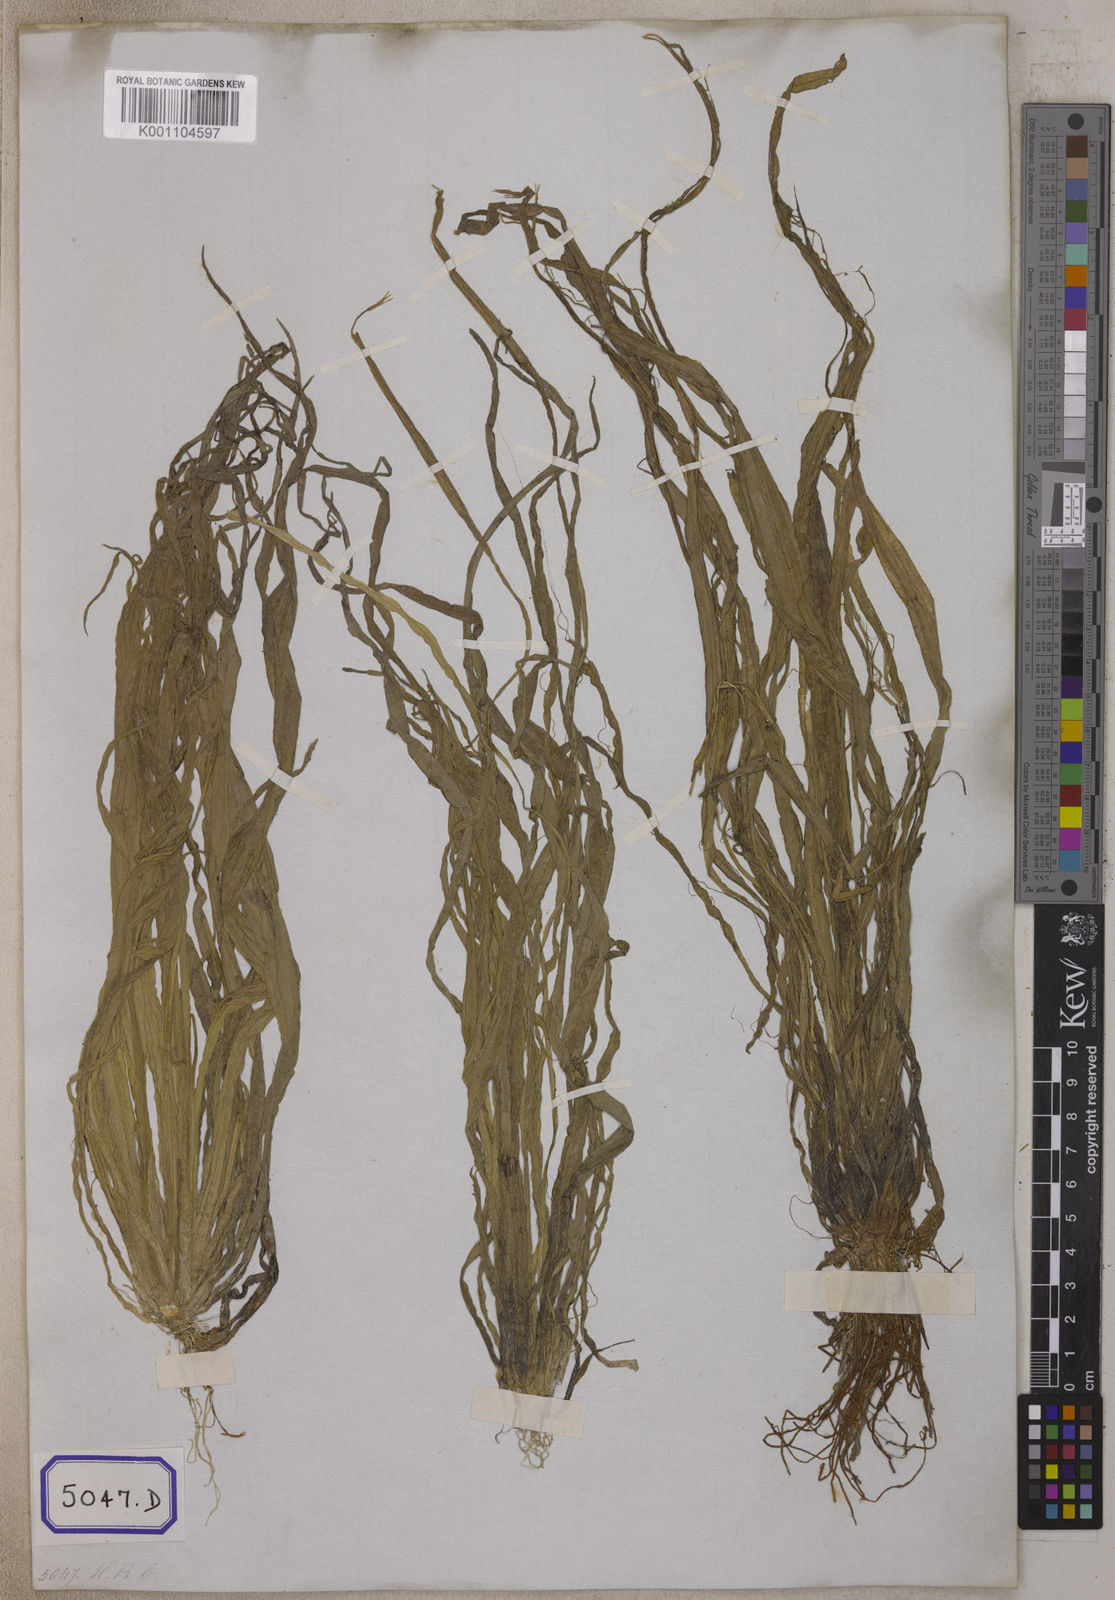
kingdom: Plantae
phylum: Tracheophyta
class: Liliopsida
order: Alismatales
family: Hydrocharitaceae
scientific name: Hydrocharitaceae
